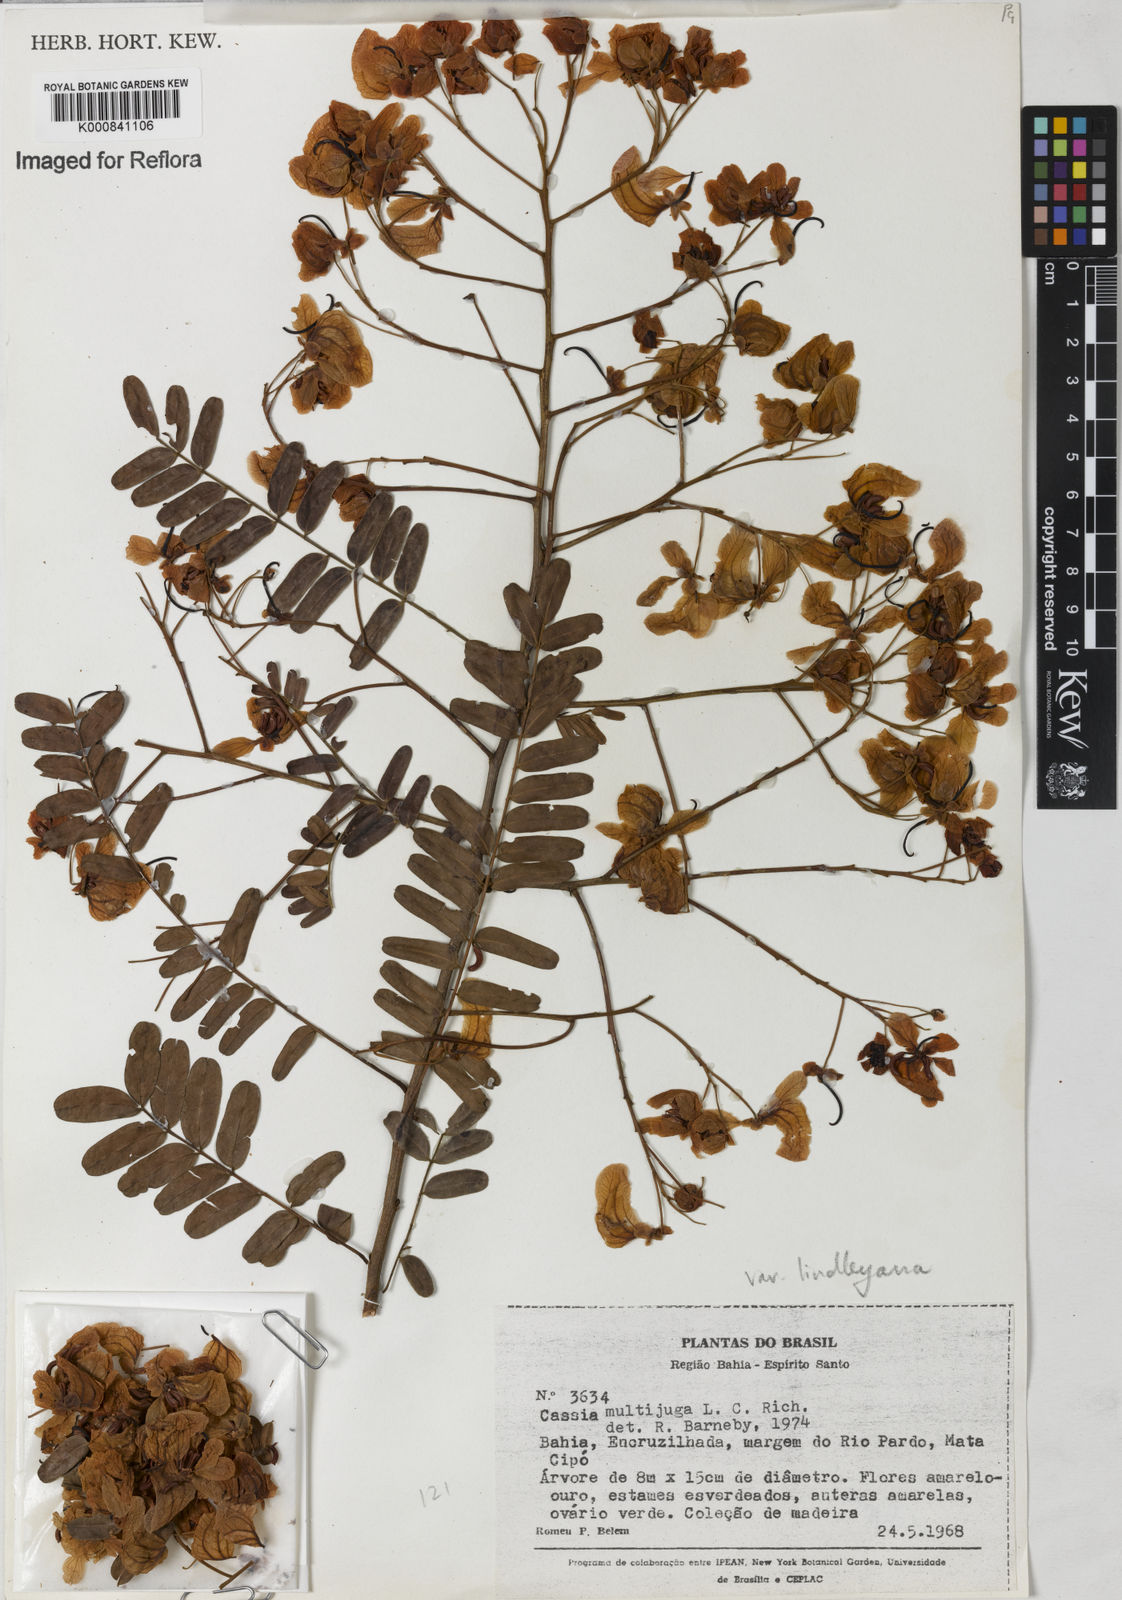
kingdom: Plantae
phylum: Tracheophyta
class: Magnoliopsida
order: Fabales
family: Fabaceae
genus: Senna
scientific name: Senna multijuga
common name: False sicklepod
